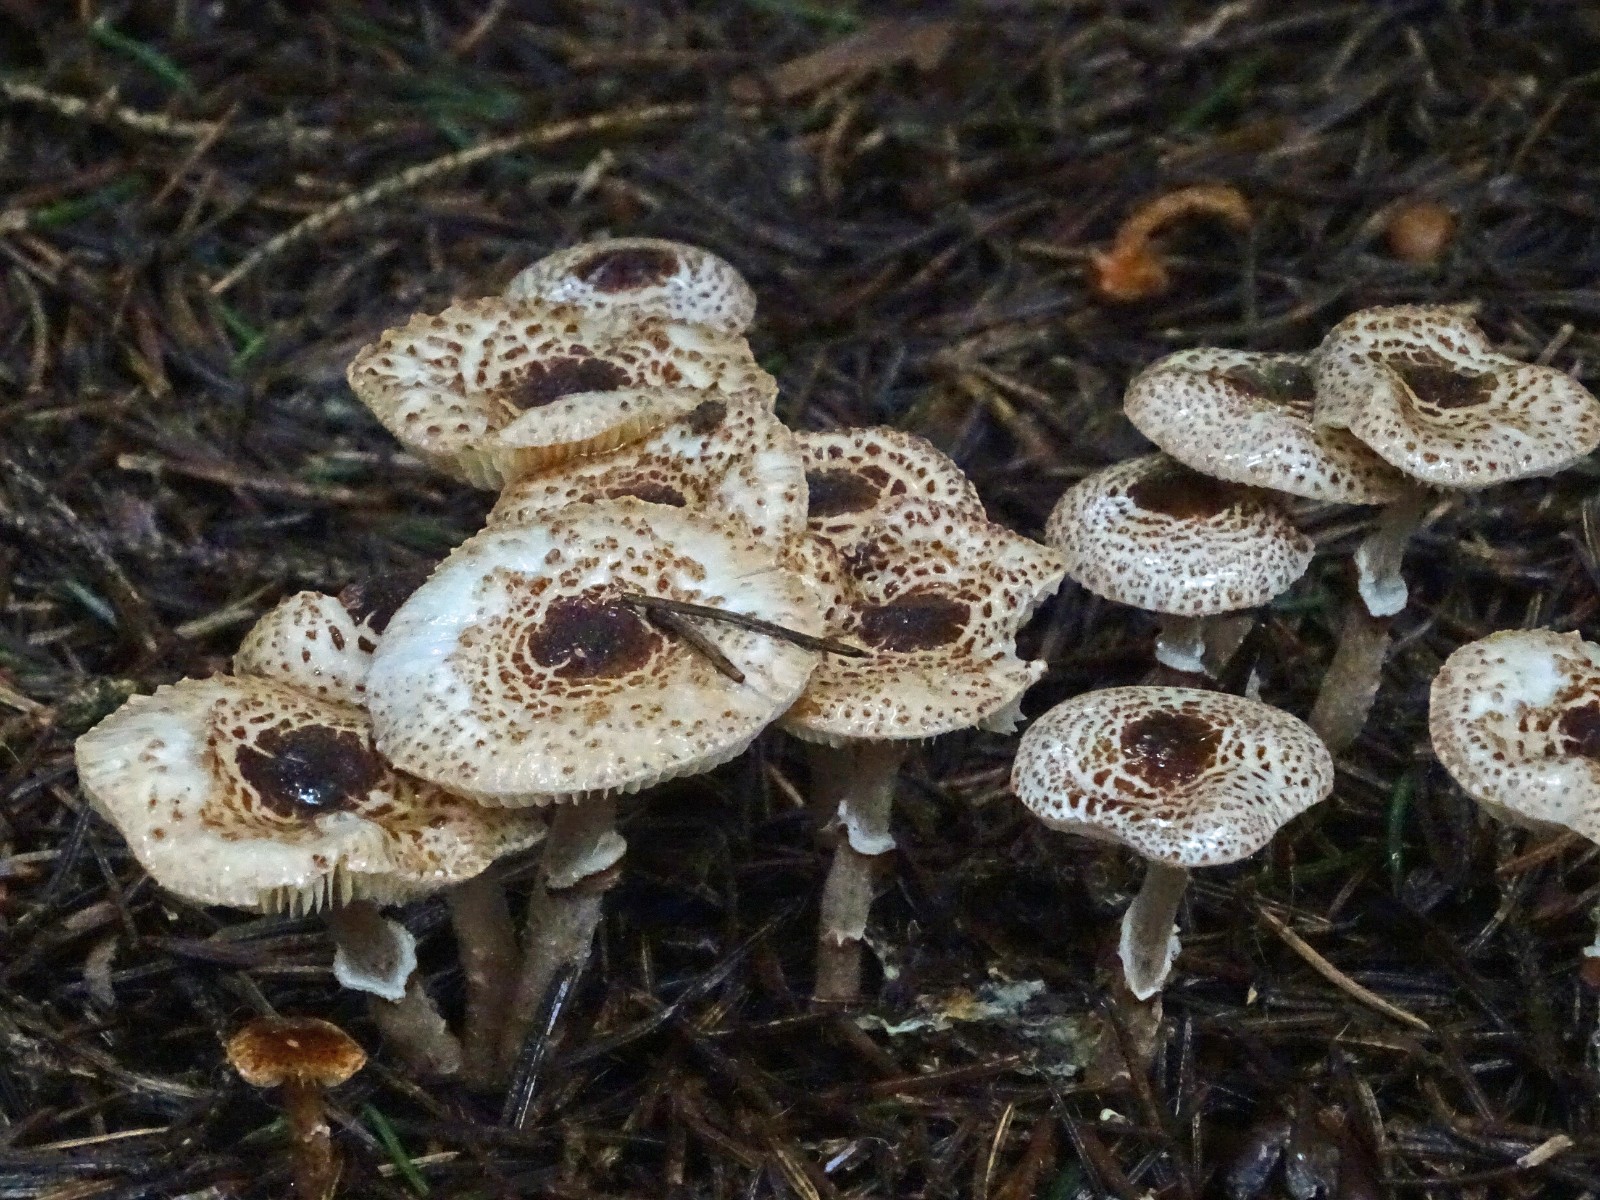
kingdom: Fungi
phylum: Basidiomycota
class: Agaricomycetes
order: Agaricales
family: Agaricaceae
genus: Lepiota
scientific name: Lepiota felina
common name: sortskællet parasolhat
